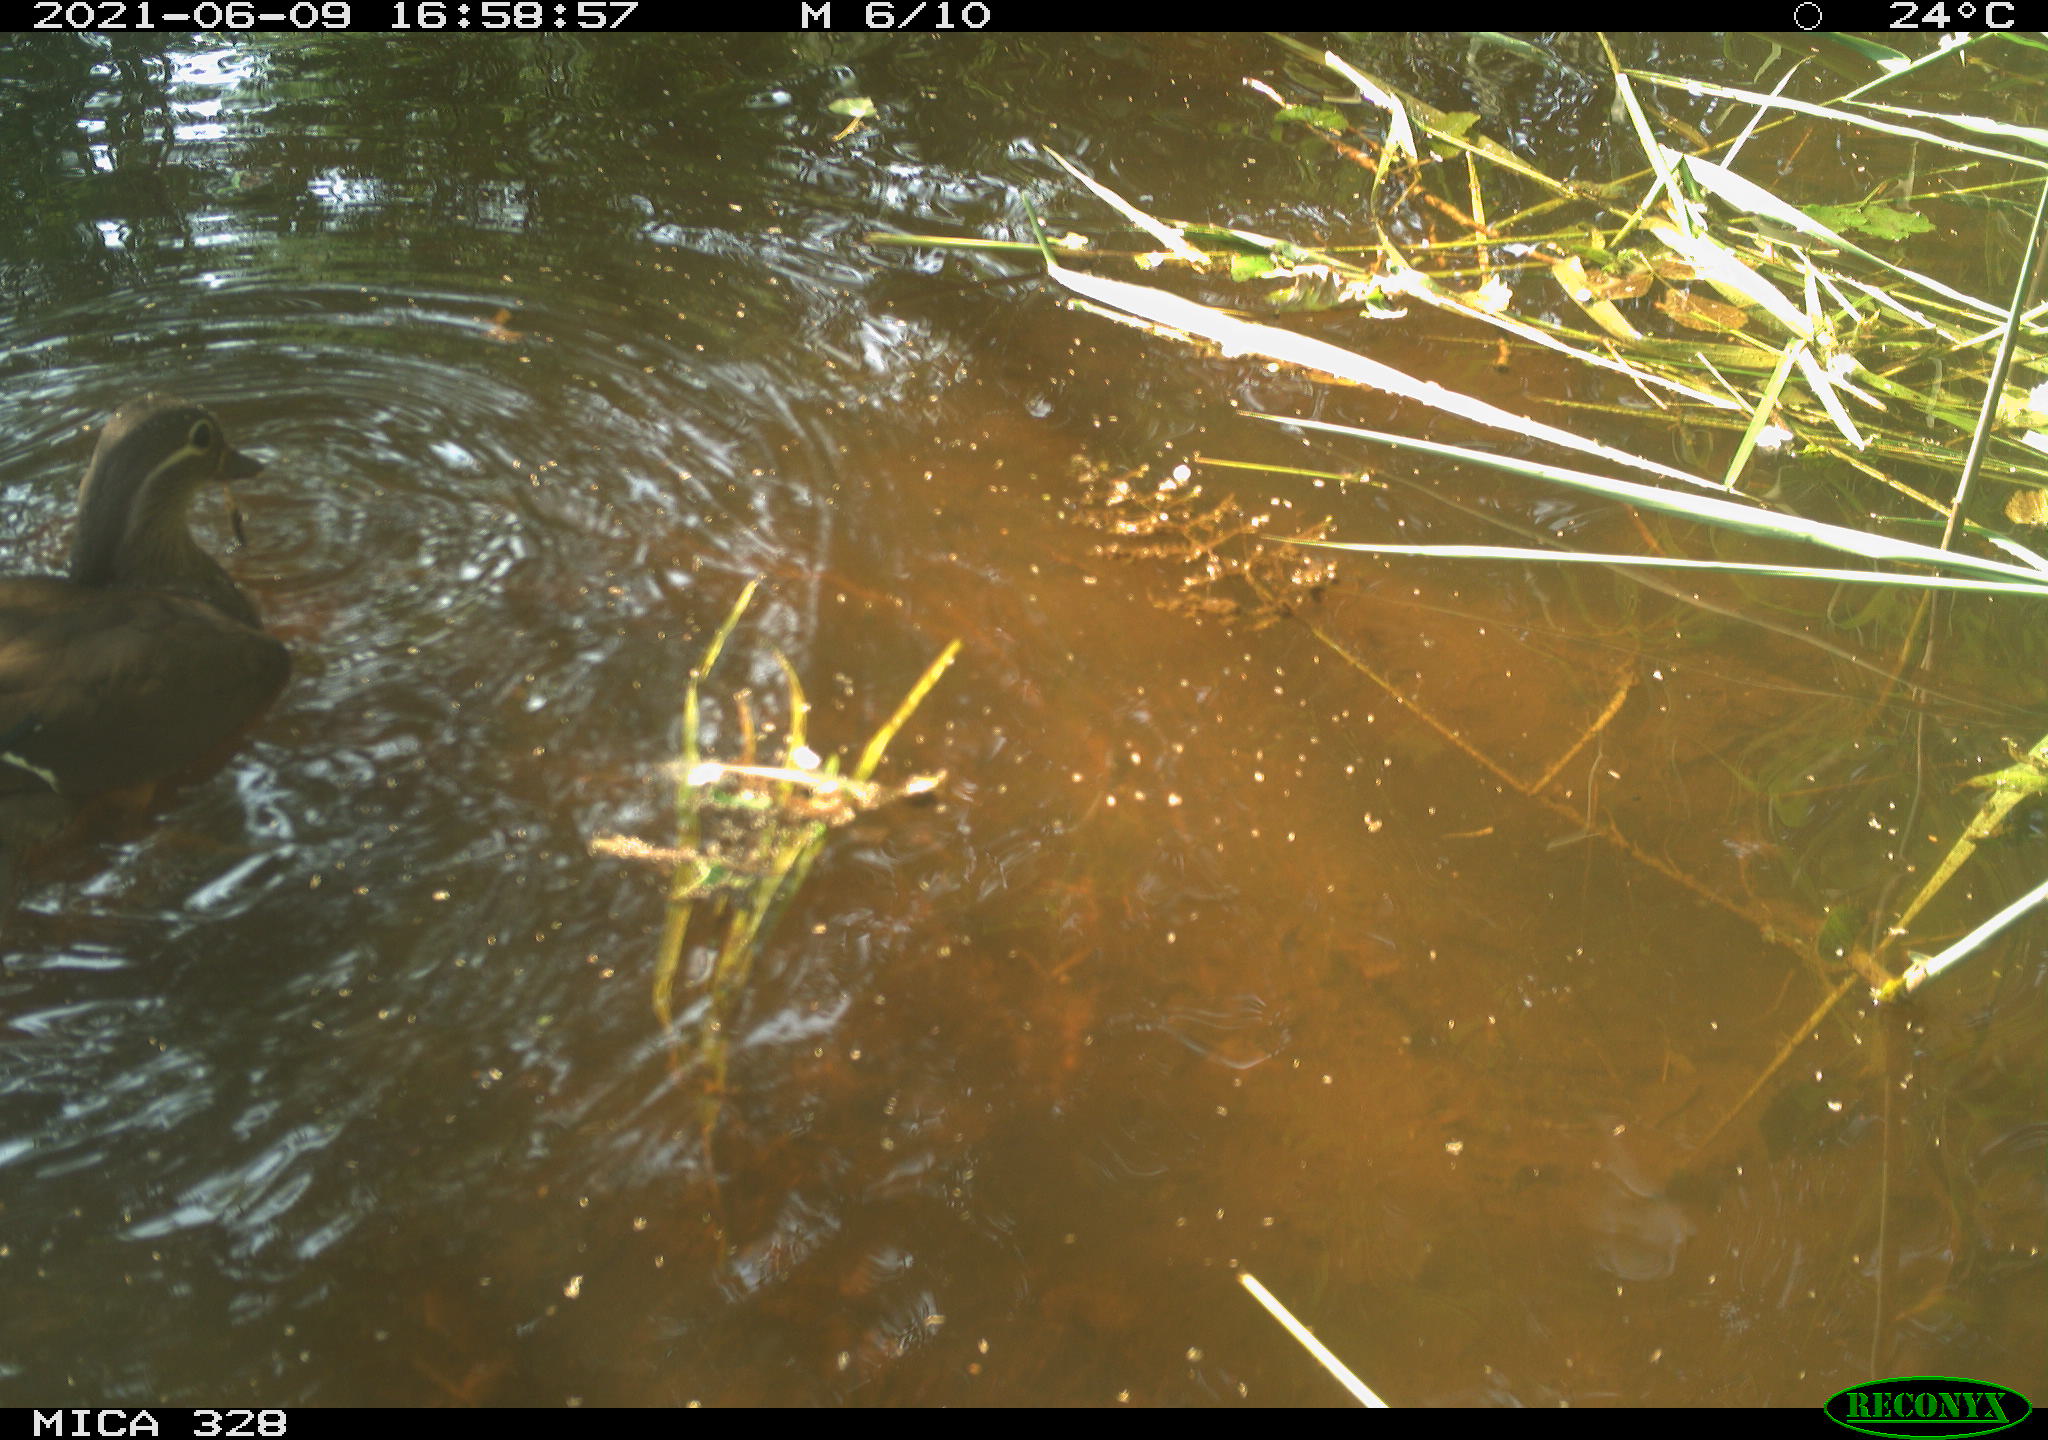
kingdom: Animalia
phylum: Chordata
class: Aves
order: Anseriformes
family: Anatidae
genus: Aix
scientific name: Aix galericulata
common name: Mandarin duck
